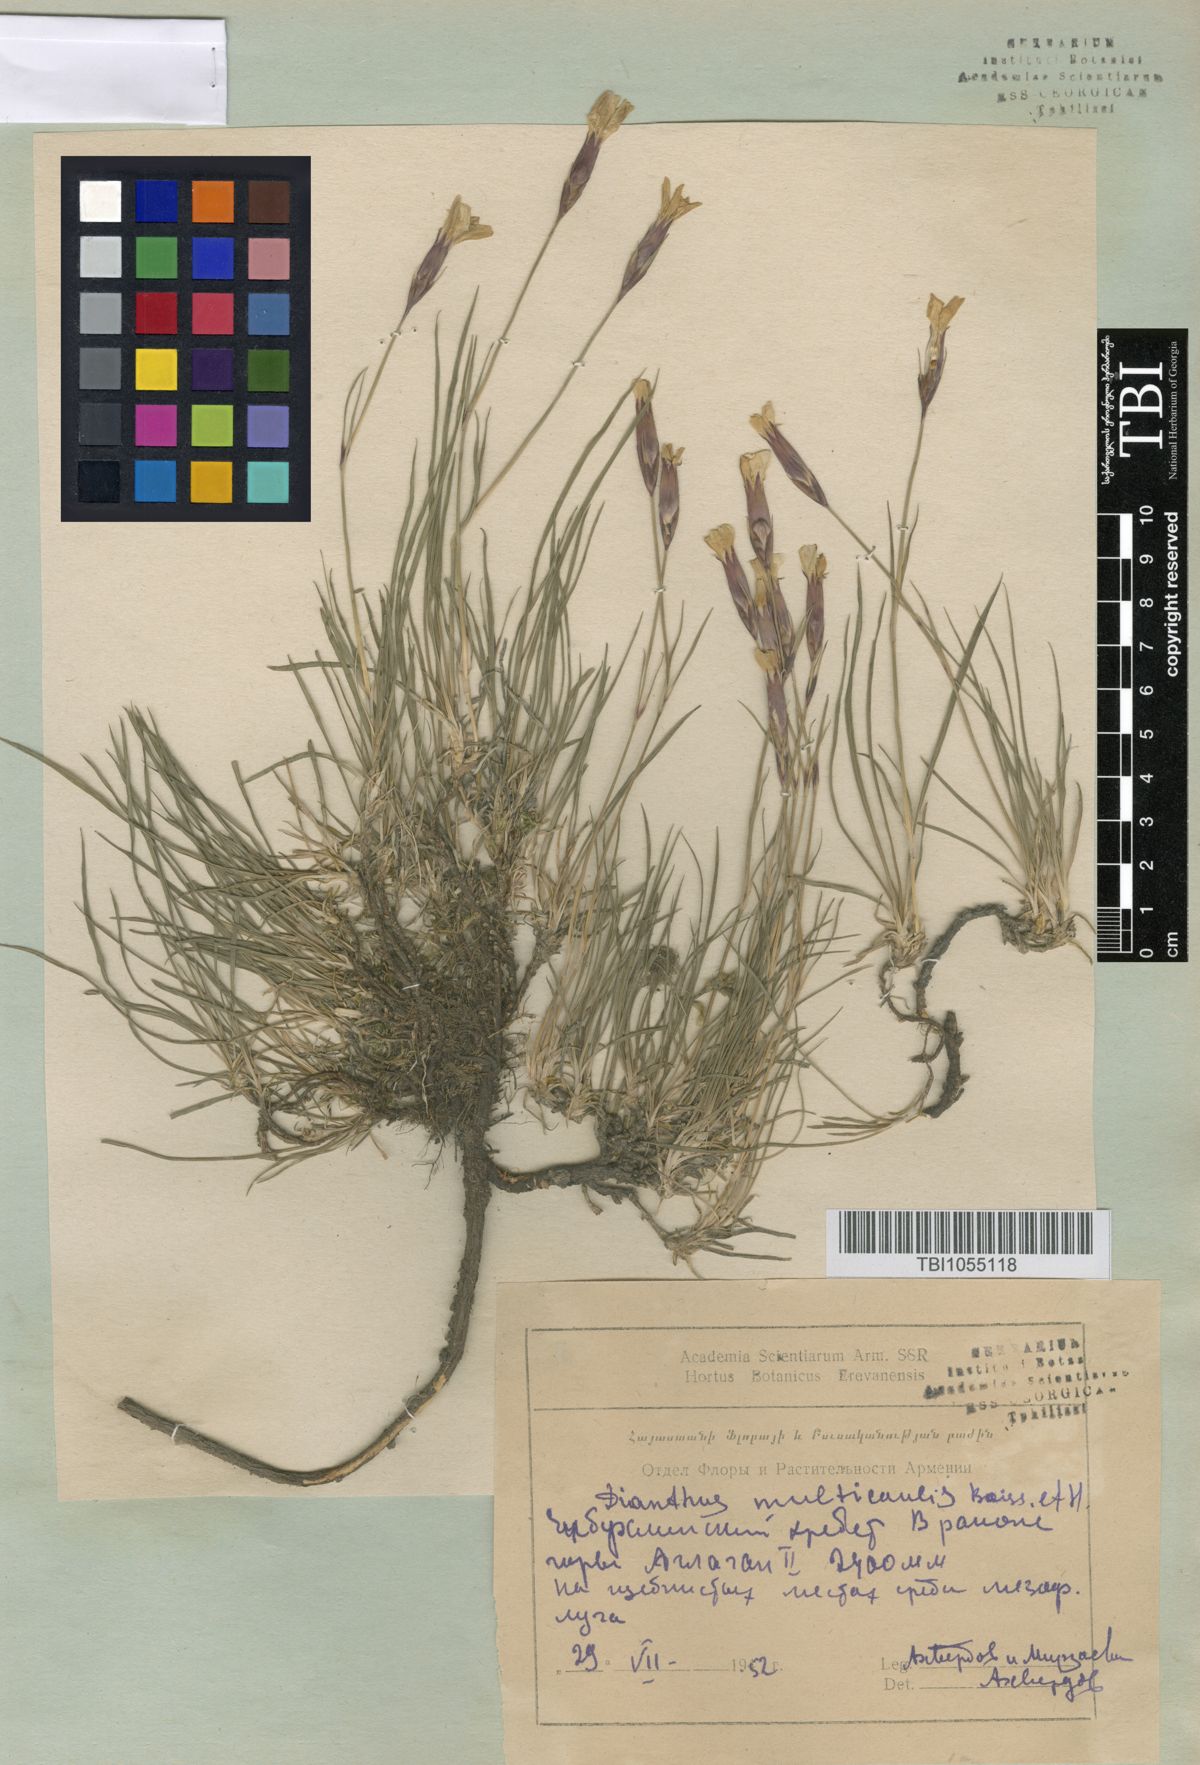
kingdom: Plantae
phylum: Tracheophyta
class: Magnoliopsida
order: Caryophyllales
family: Caryophyllaceae
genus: Dianthus
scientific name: Dianthus cretaceus
